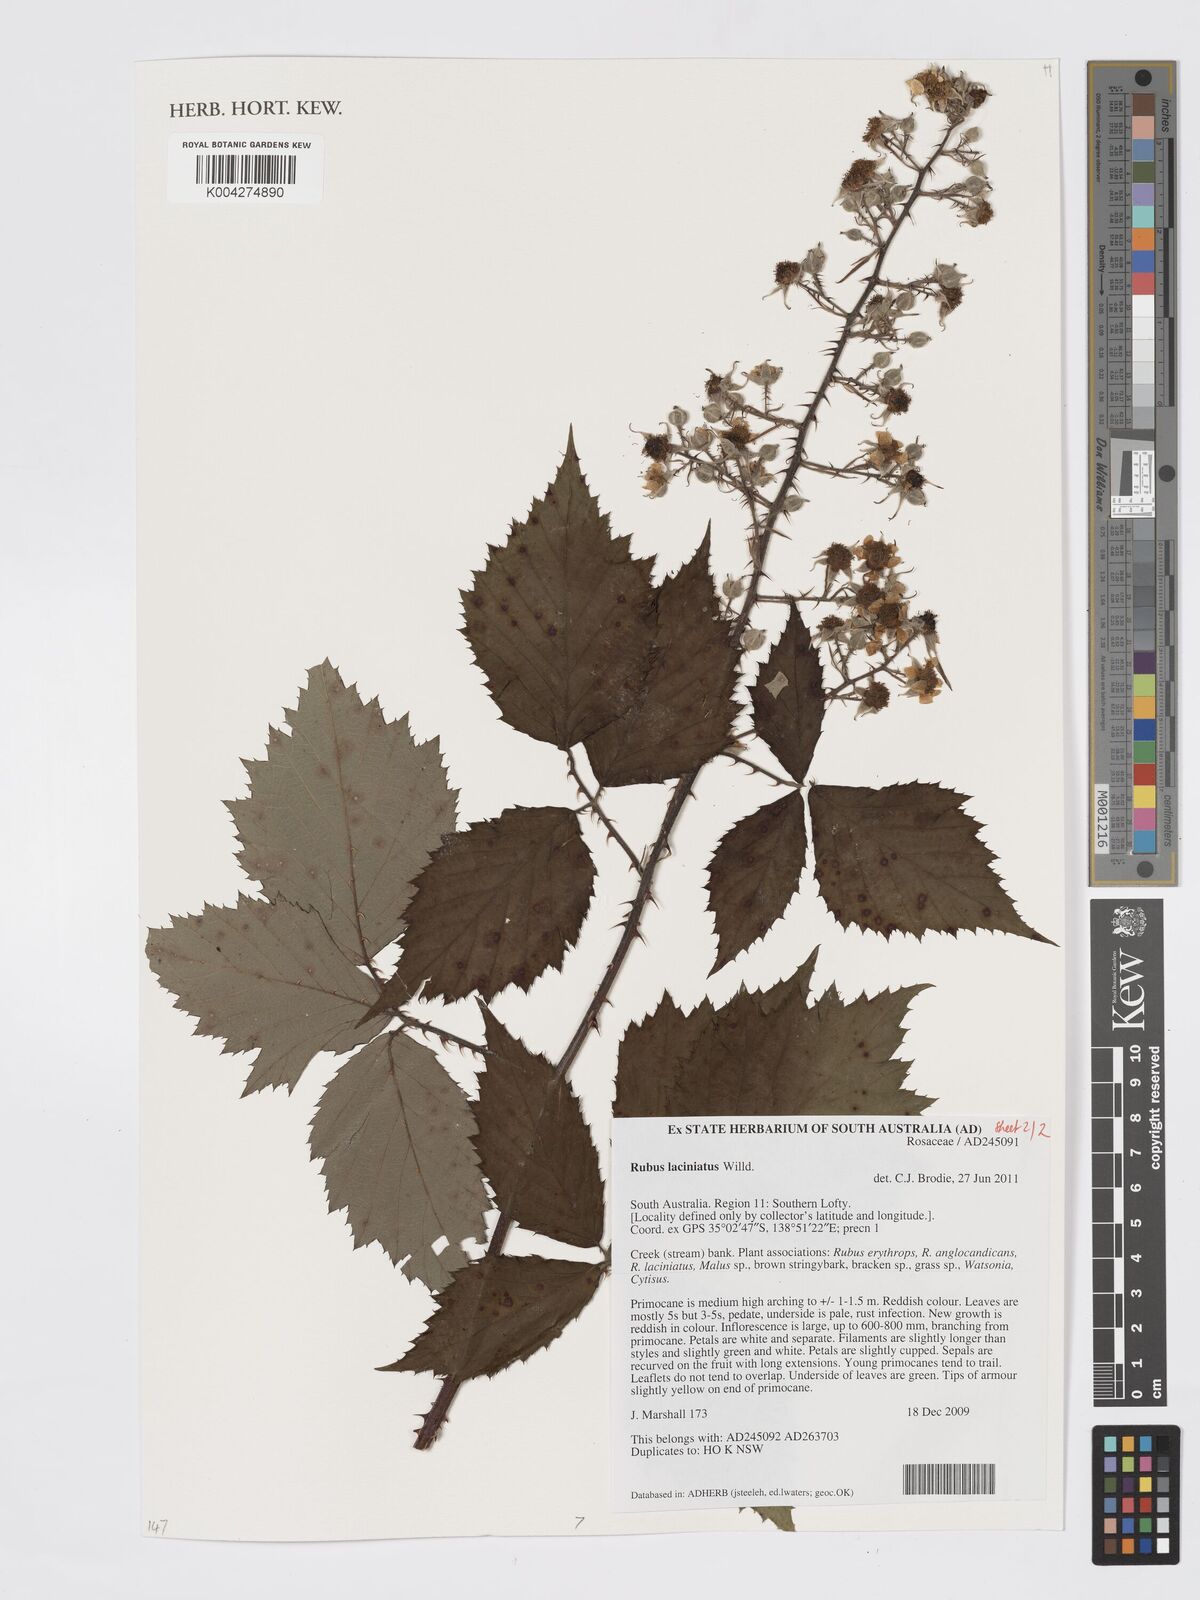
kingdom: Plantae
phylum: Tracheophyta
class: Magnoliopsida
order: Rosales
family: Rosaceae
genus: Rubus
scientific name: Rubus laciniatus
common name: Evergreen blackberry
